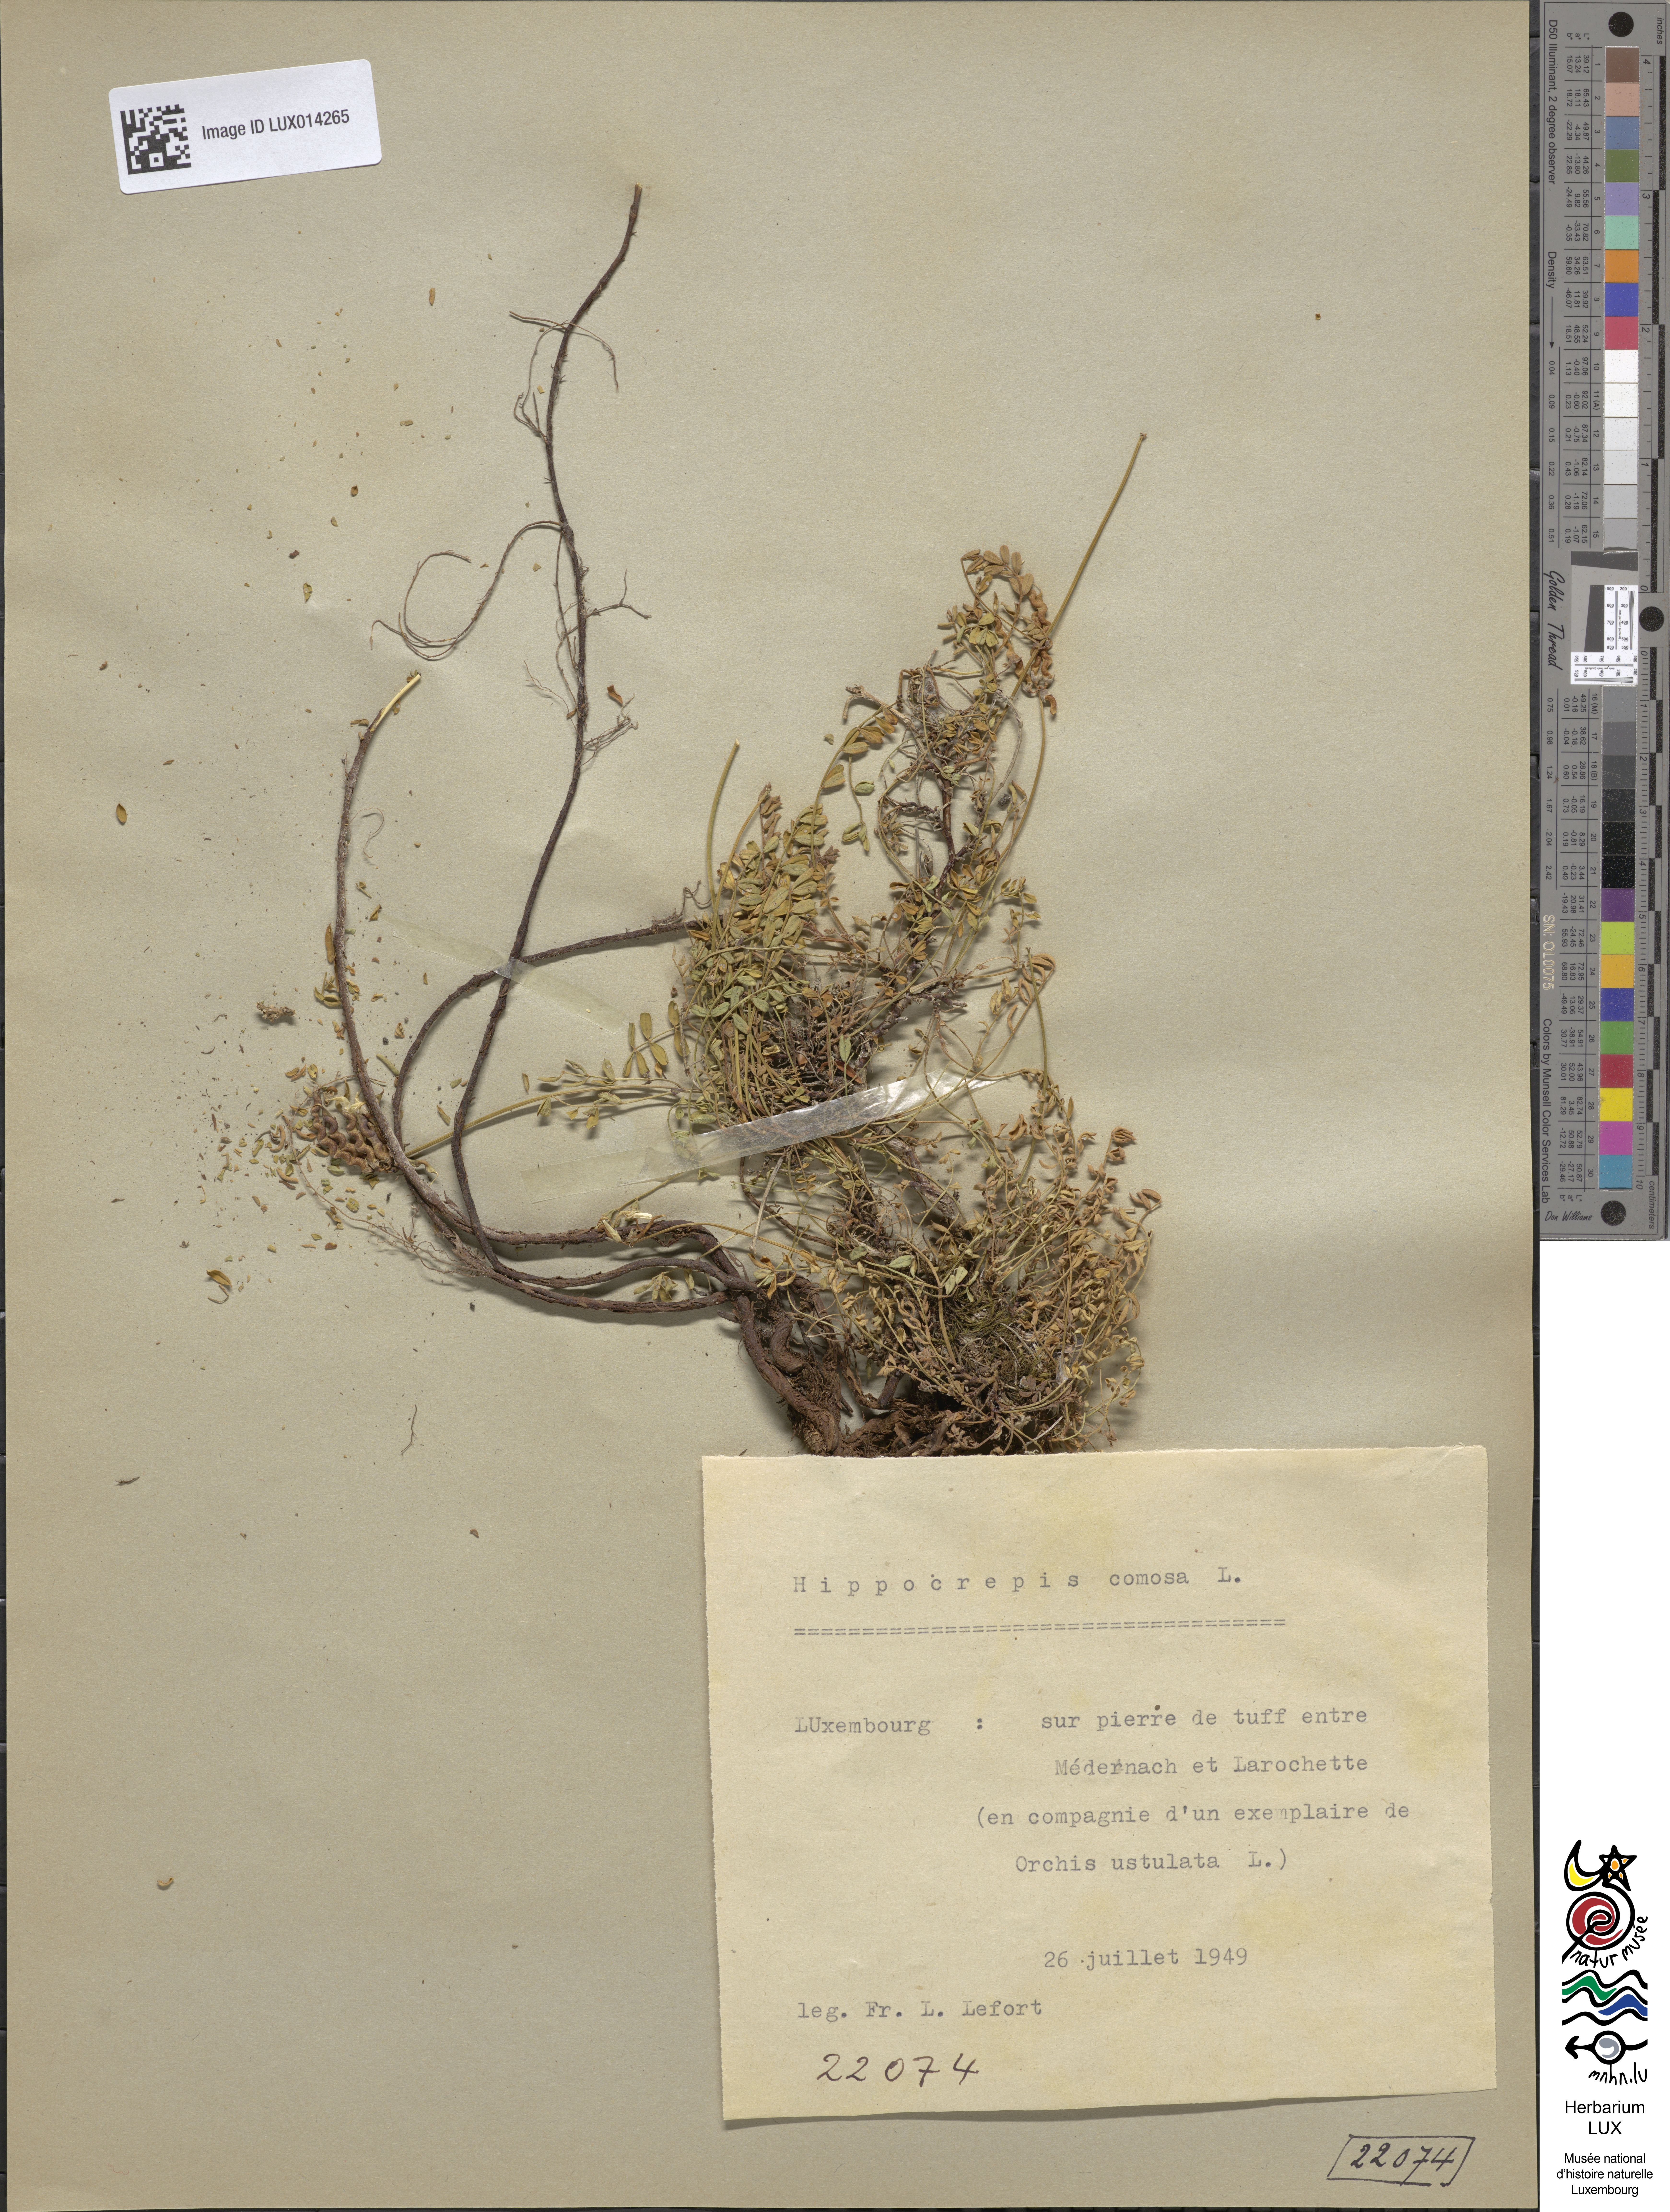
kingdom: Plantae
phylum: Tracheophyta
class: Magnoliopsida
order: Fabales
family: Fabaceae
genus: Hippocrepis
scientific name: Hippocrepis comosa
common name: Horseshoe vetch
